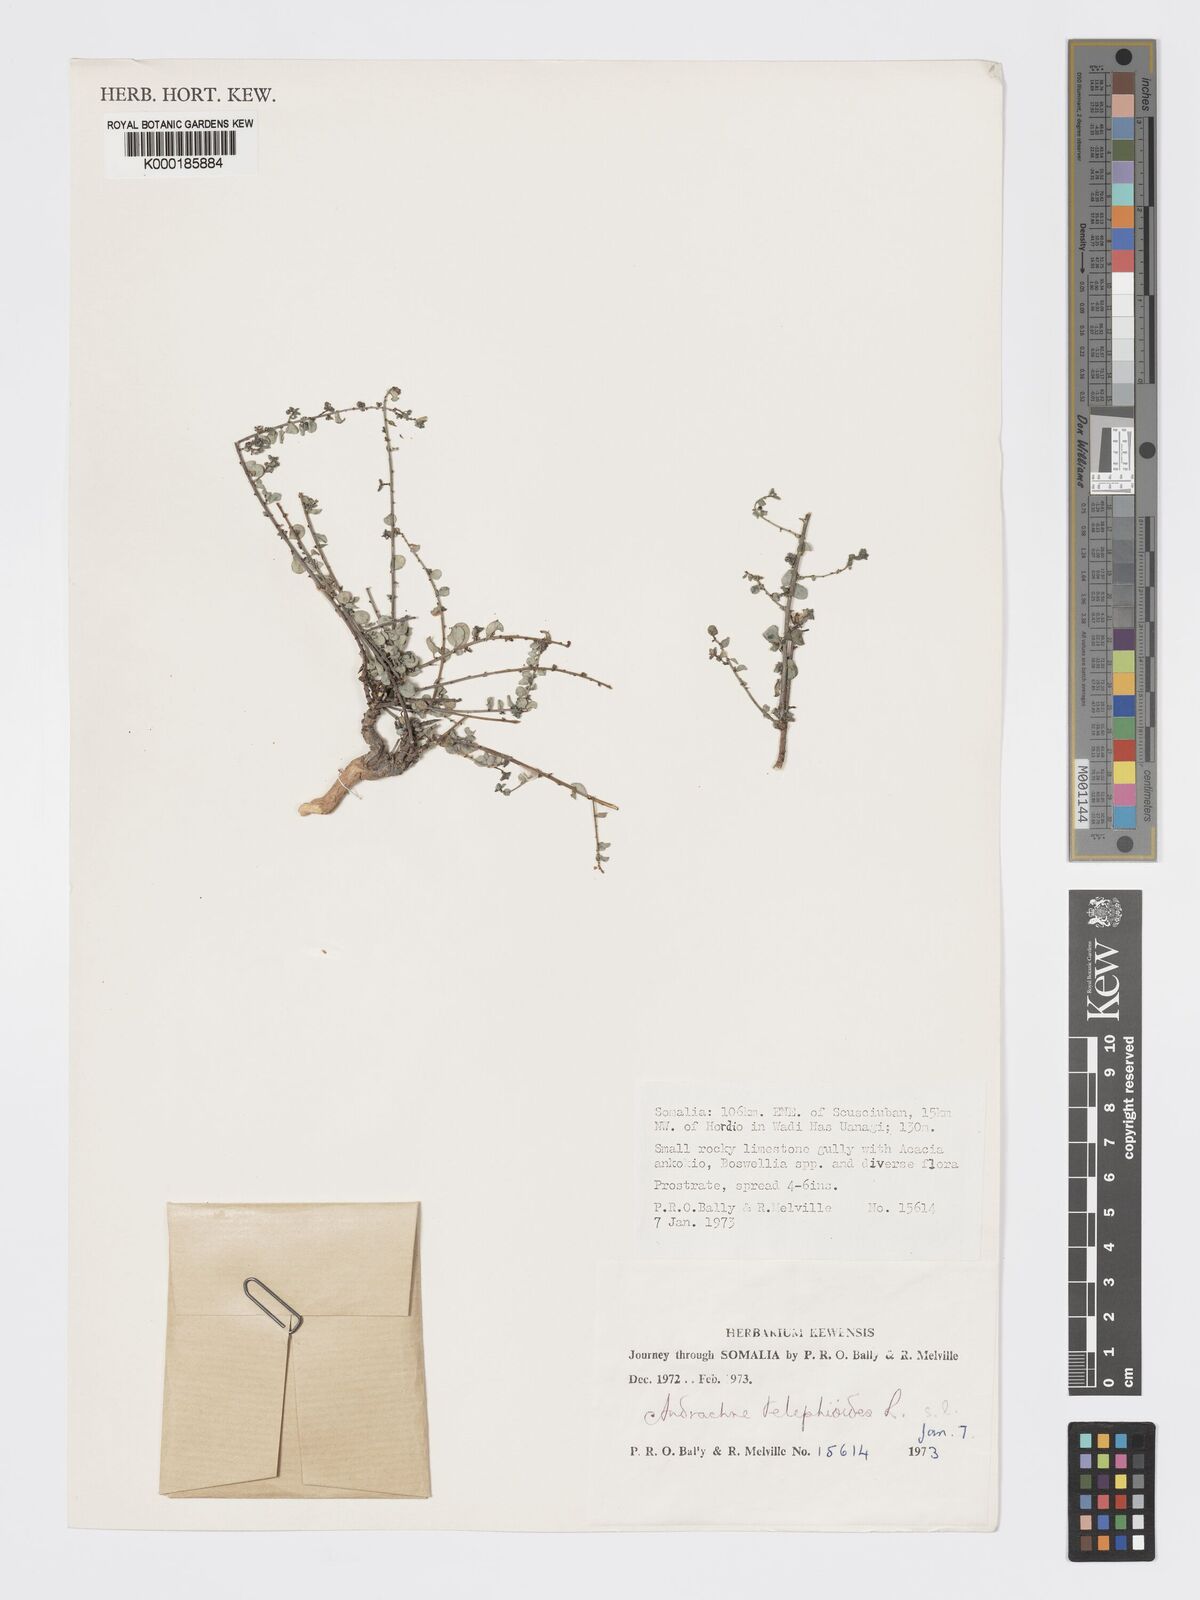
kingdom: Plantae
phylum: Tracheophyta
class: Magnoliopsida
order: Malpighiales
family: Phyllanthaceae
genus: Andrachne
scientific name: Andrachne telephioides
